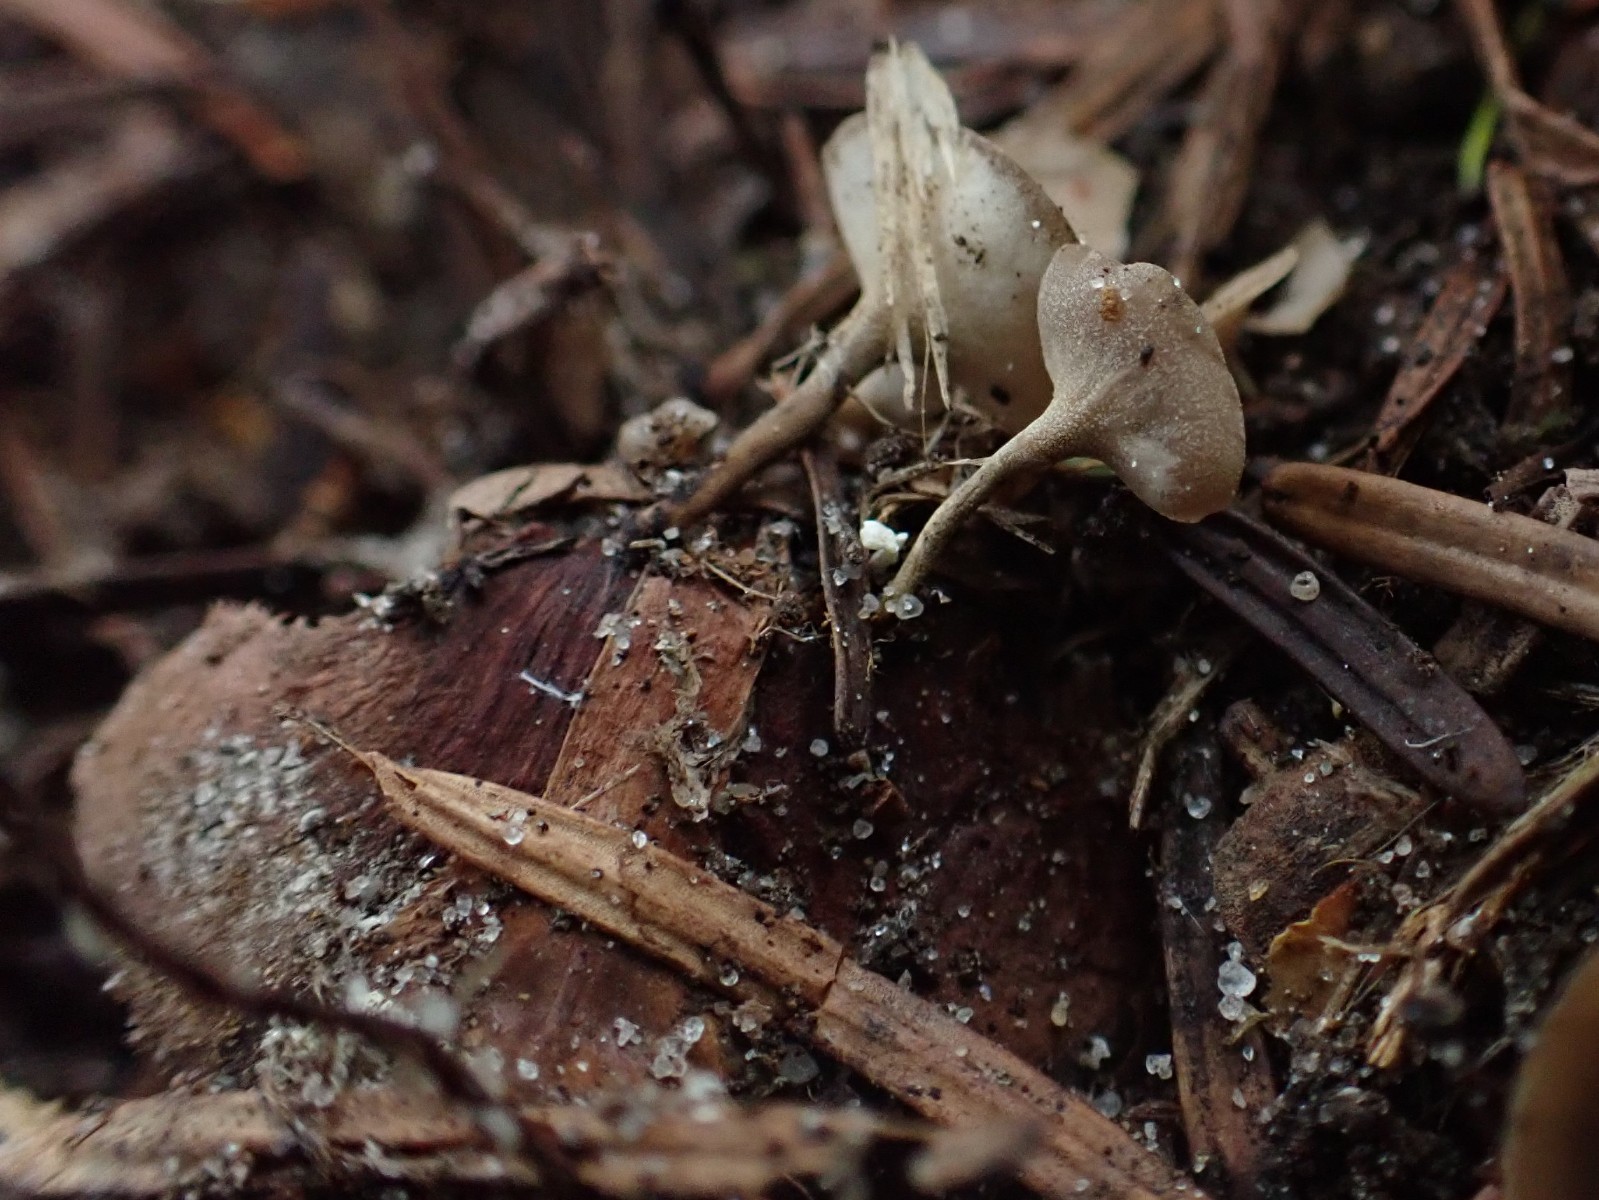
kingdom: Fungi
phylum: Ascomycota
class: Leotiomycetes
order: Helotiales
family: Sclerotiniaceae
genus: Ciboria
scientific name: Ciboria rufofusca
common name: kogleskæl-knoldskive
